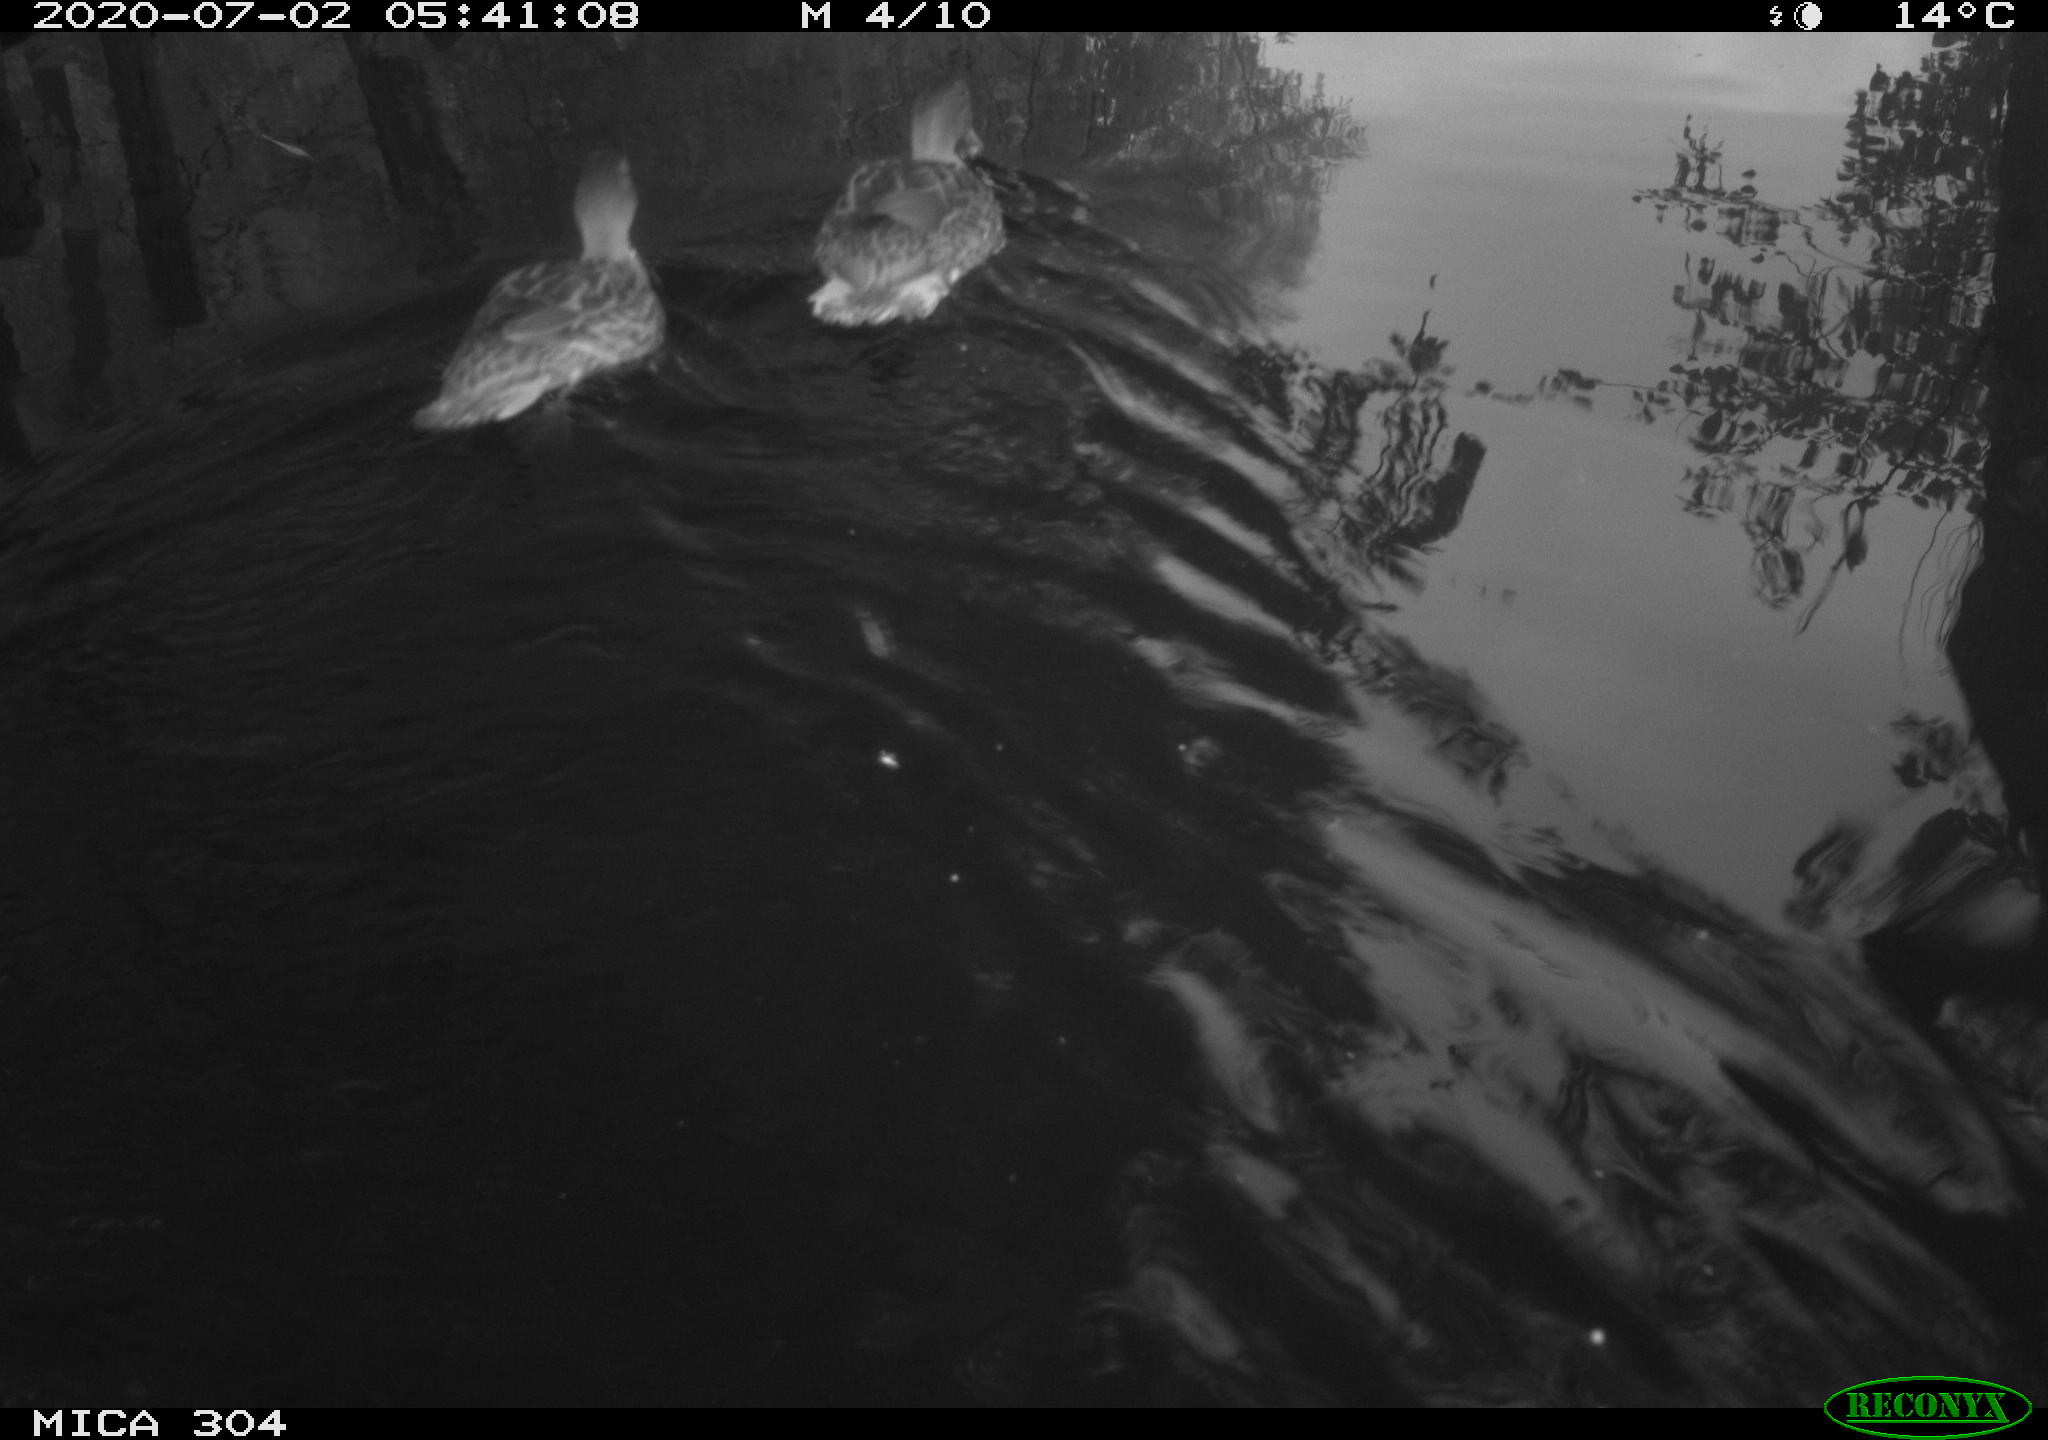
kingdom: Animalia
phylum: Chordata
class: Aves
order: Anseriformes
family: Anatidae
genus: Anas
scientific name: Anas platyrhynchos
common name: Mallard
